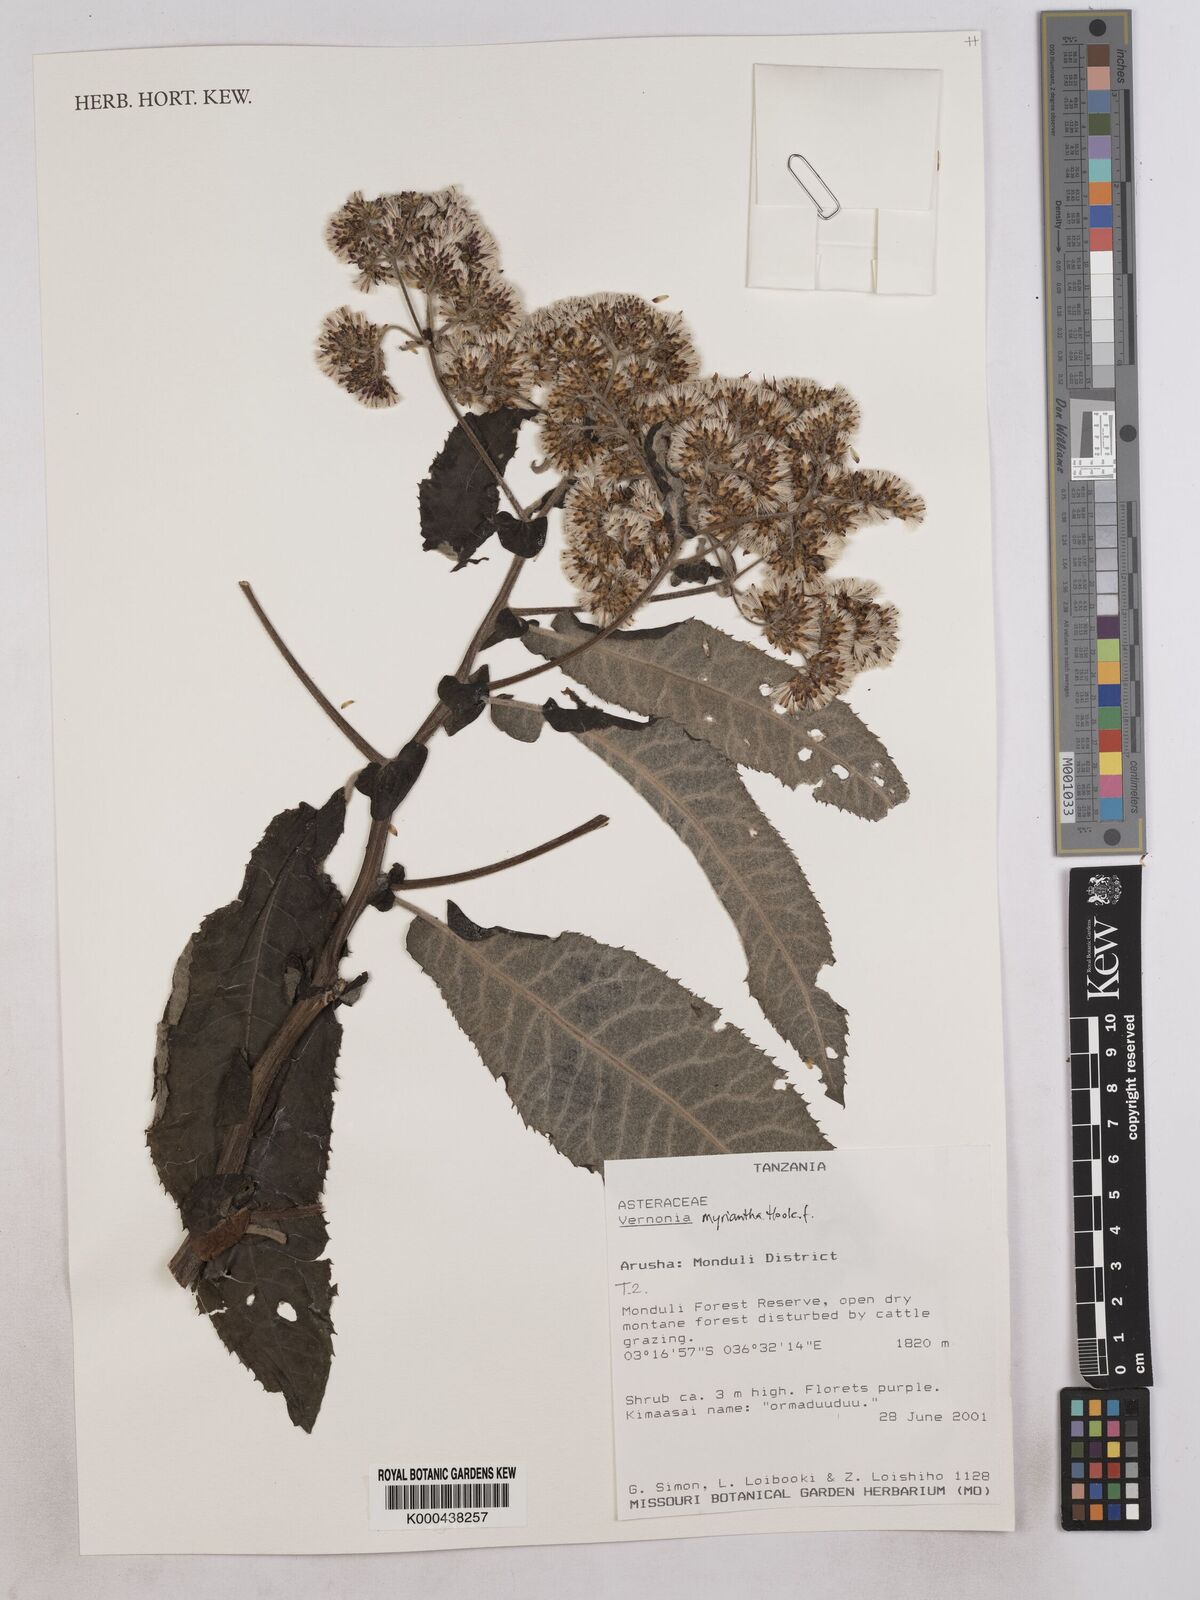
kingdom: Plantae
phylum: Tracheophyta
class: Magnoliopsida
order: Asterales
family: Asteraceae
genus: Gymnanthemum
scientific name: Gymnanthemum myrianthum
